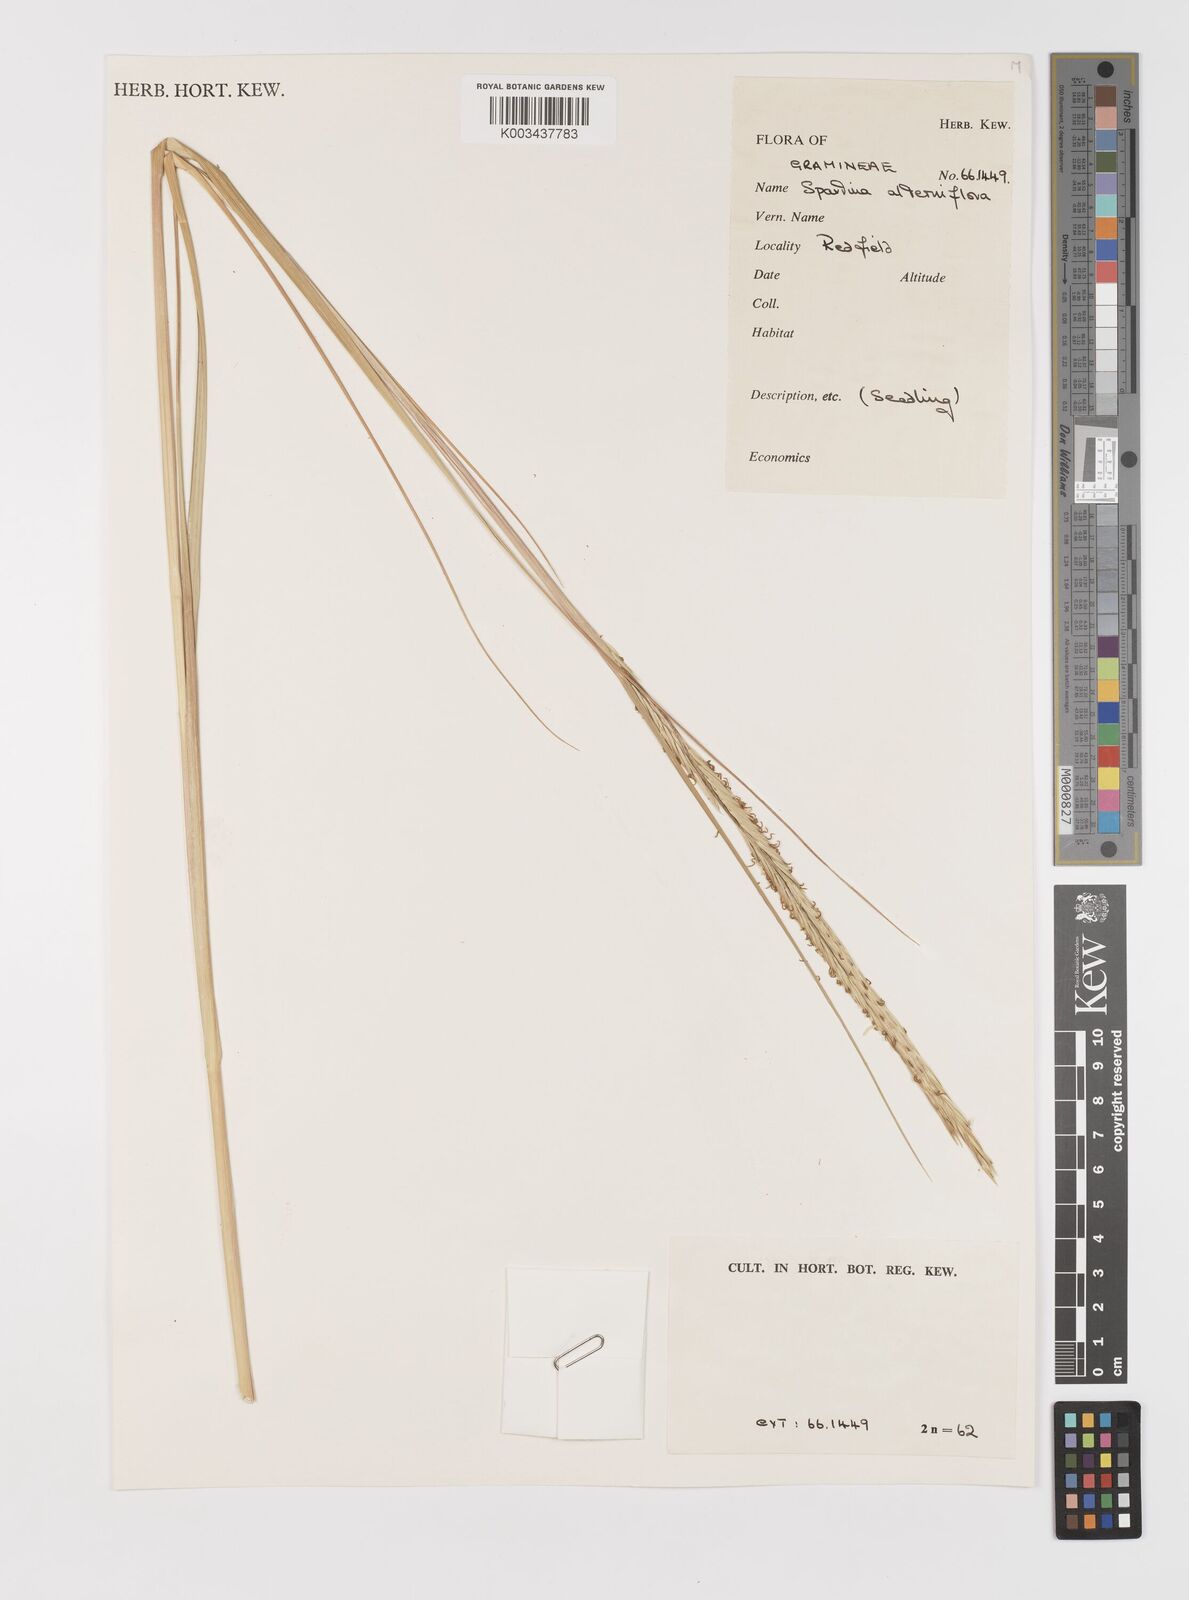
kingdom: Plantae
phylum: Tracheophyta
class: Liliopsida
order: Poales
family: Poaceae
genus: Sporobolus
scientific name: Sporobolus alterniflorus
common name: Atlantic cordgrass
